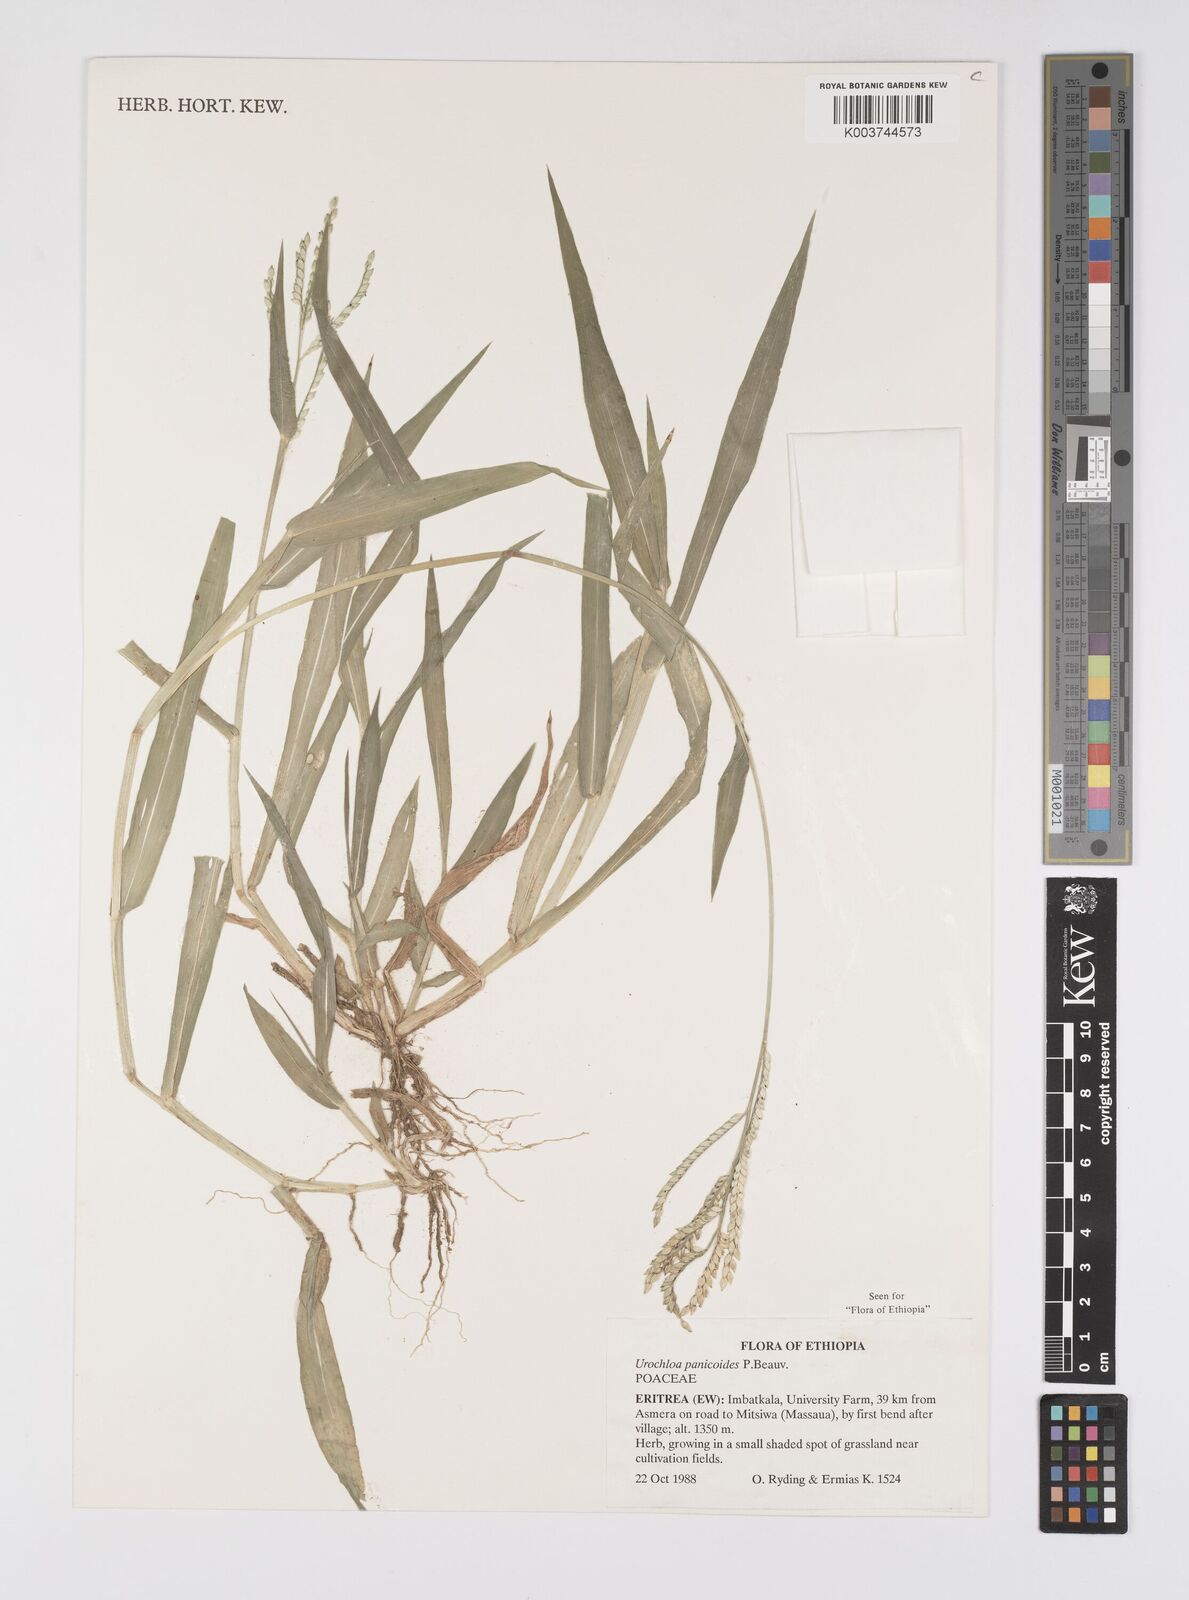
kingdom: Plantae
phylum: Tracheophyta
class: Liliopsida
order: Poales
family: Poaceae
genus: Urochloa
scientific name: Urochloa panicoides
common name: Sharp-flowered signal-grass
